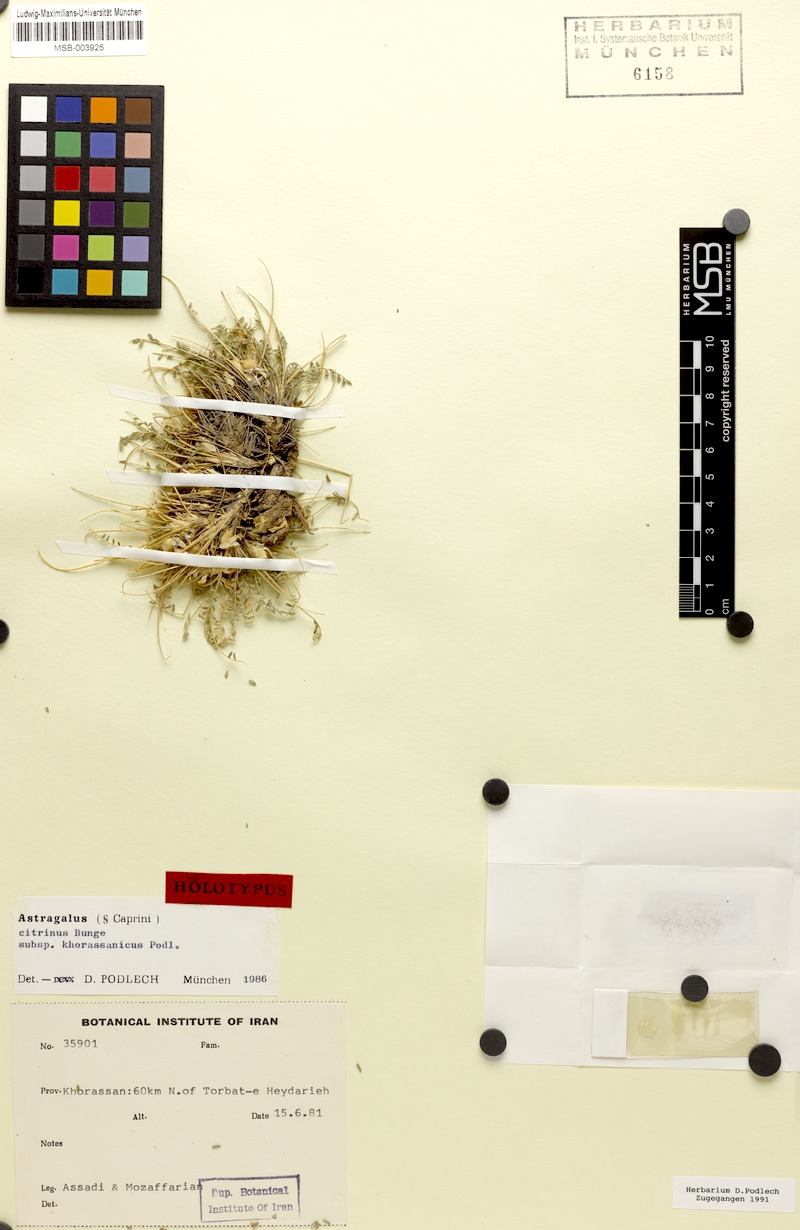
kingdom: Plantae
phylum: Tracheophyta
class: Magnoliopsida
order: Fabales
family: Fabaceae
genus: Astragalus
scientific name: Astragalus citrinus
